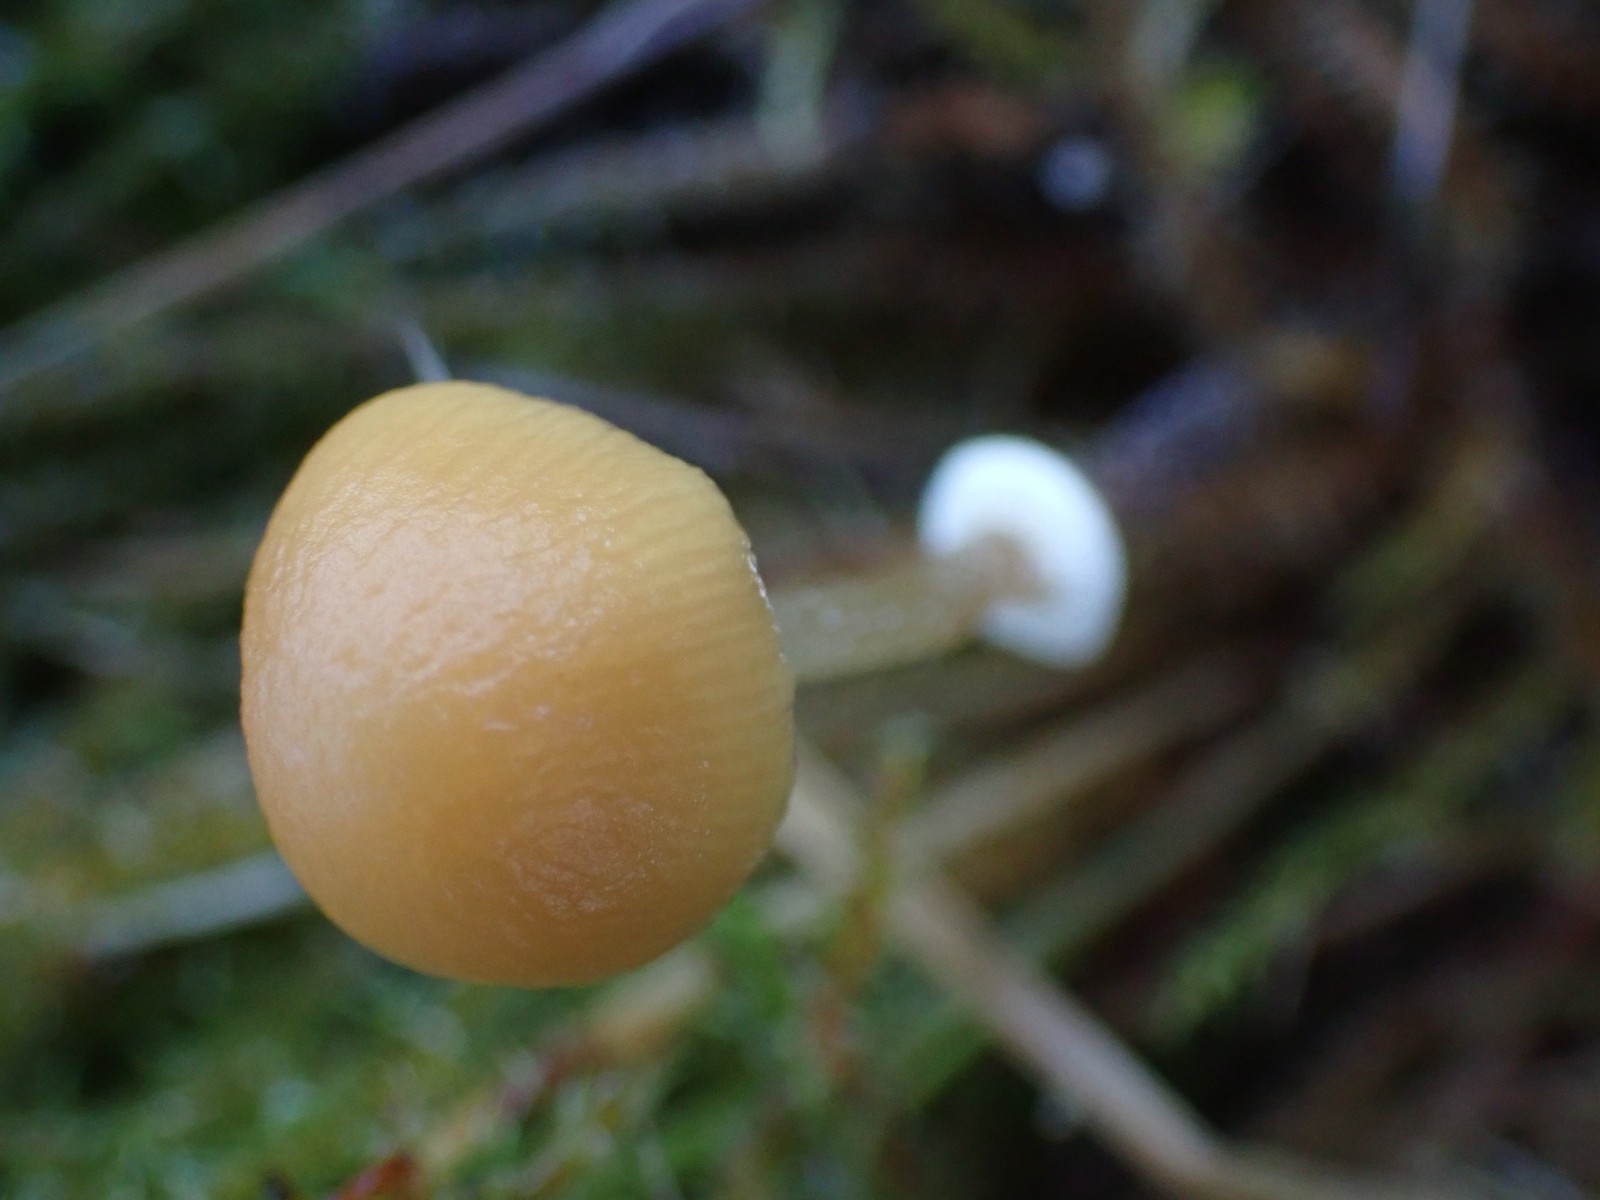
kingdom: Fungi
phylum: Basidiomycota
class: Agaricomycetes
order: Agaricales
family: Bolbitiaceae
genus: Pholiotina
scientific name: Pholiotina
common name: dansehat
